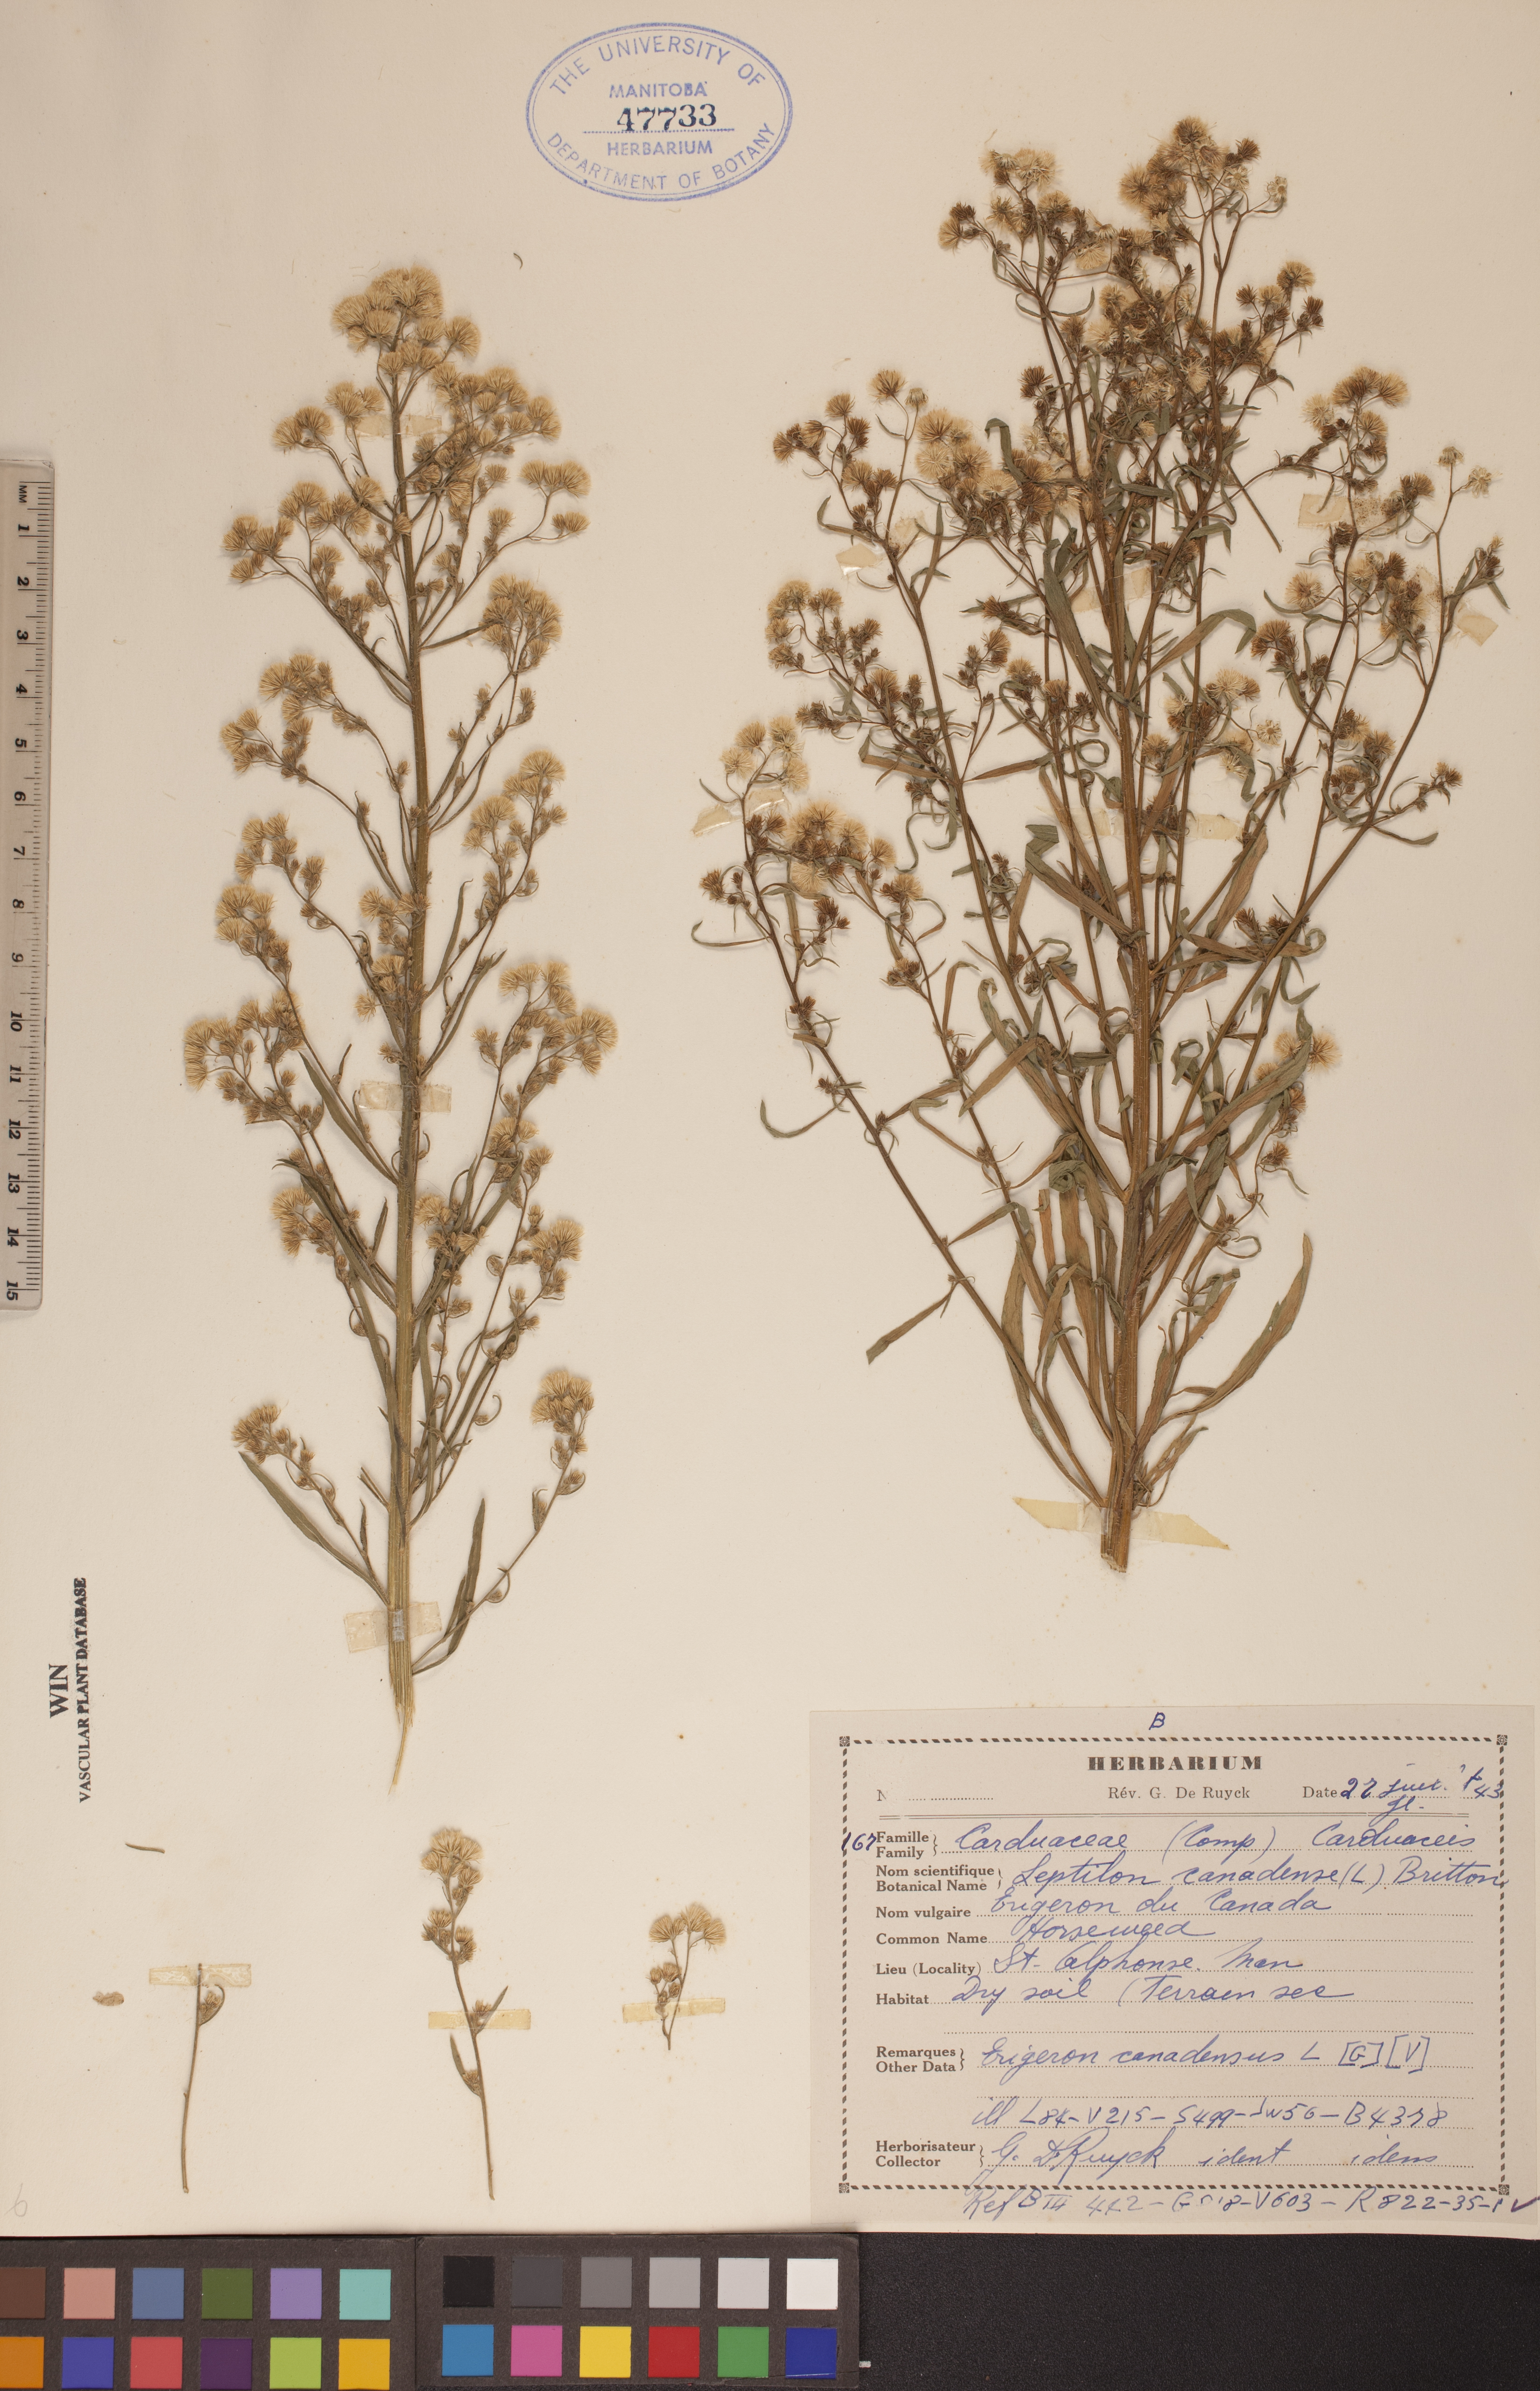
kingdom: Plantae
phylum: Tracheophyta
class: Magnoliopsida
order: Asterales
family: Asteraceae
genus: Erigeron
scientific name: Erigeron canadensis
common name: Canadian fleabane
